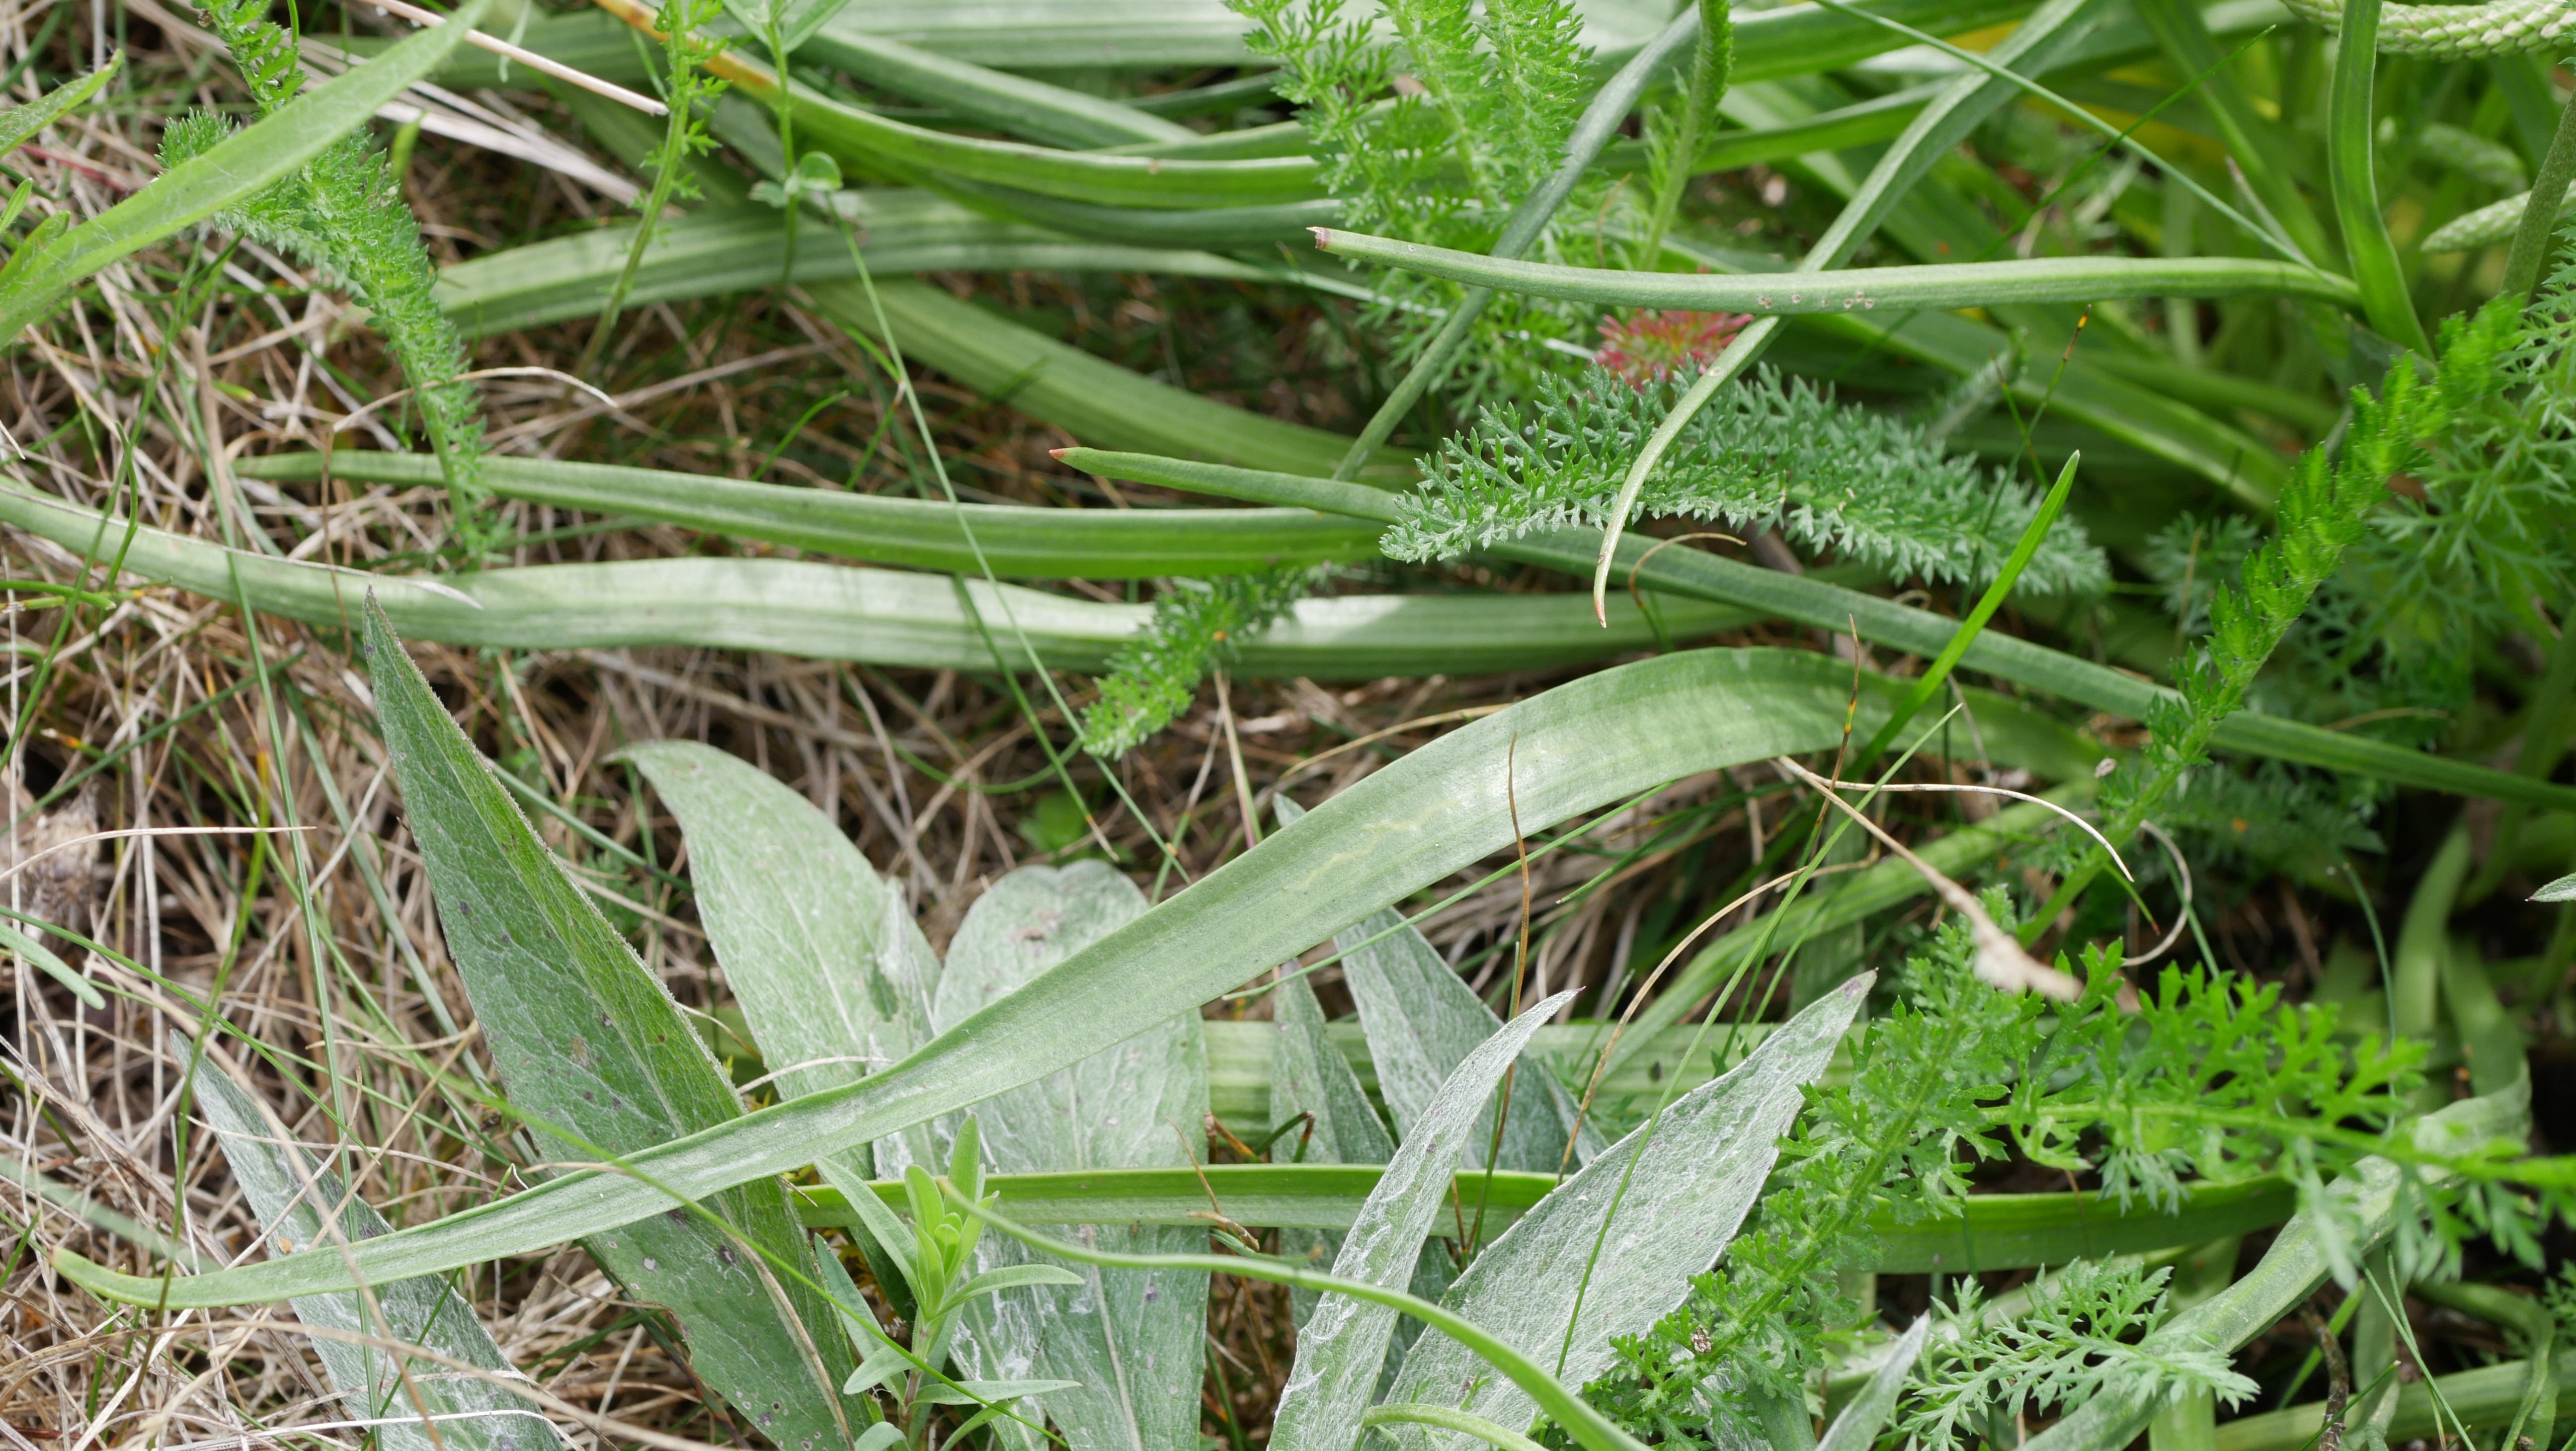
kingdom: Plantae
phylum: Tracheophyta
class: Magnoliopsida
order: Lamiales
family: Plantaginaceae
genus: Plantago
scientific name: Plantago maritima
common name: Strand-vejbred
